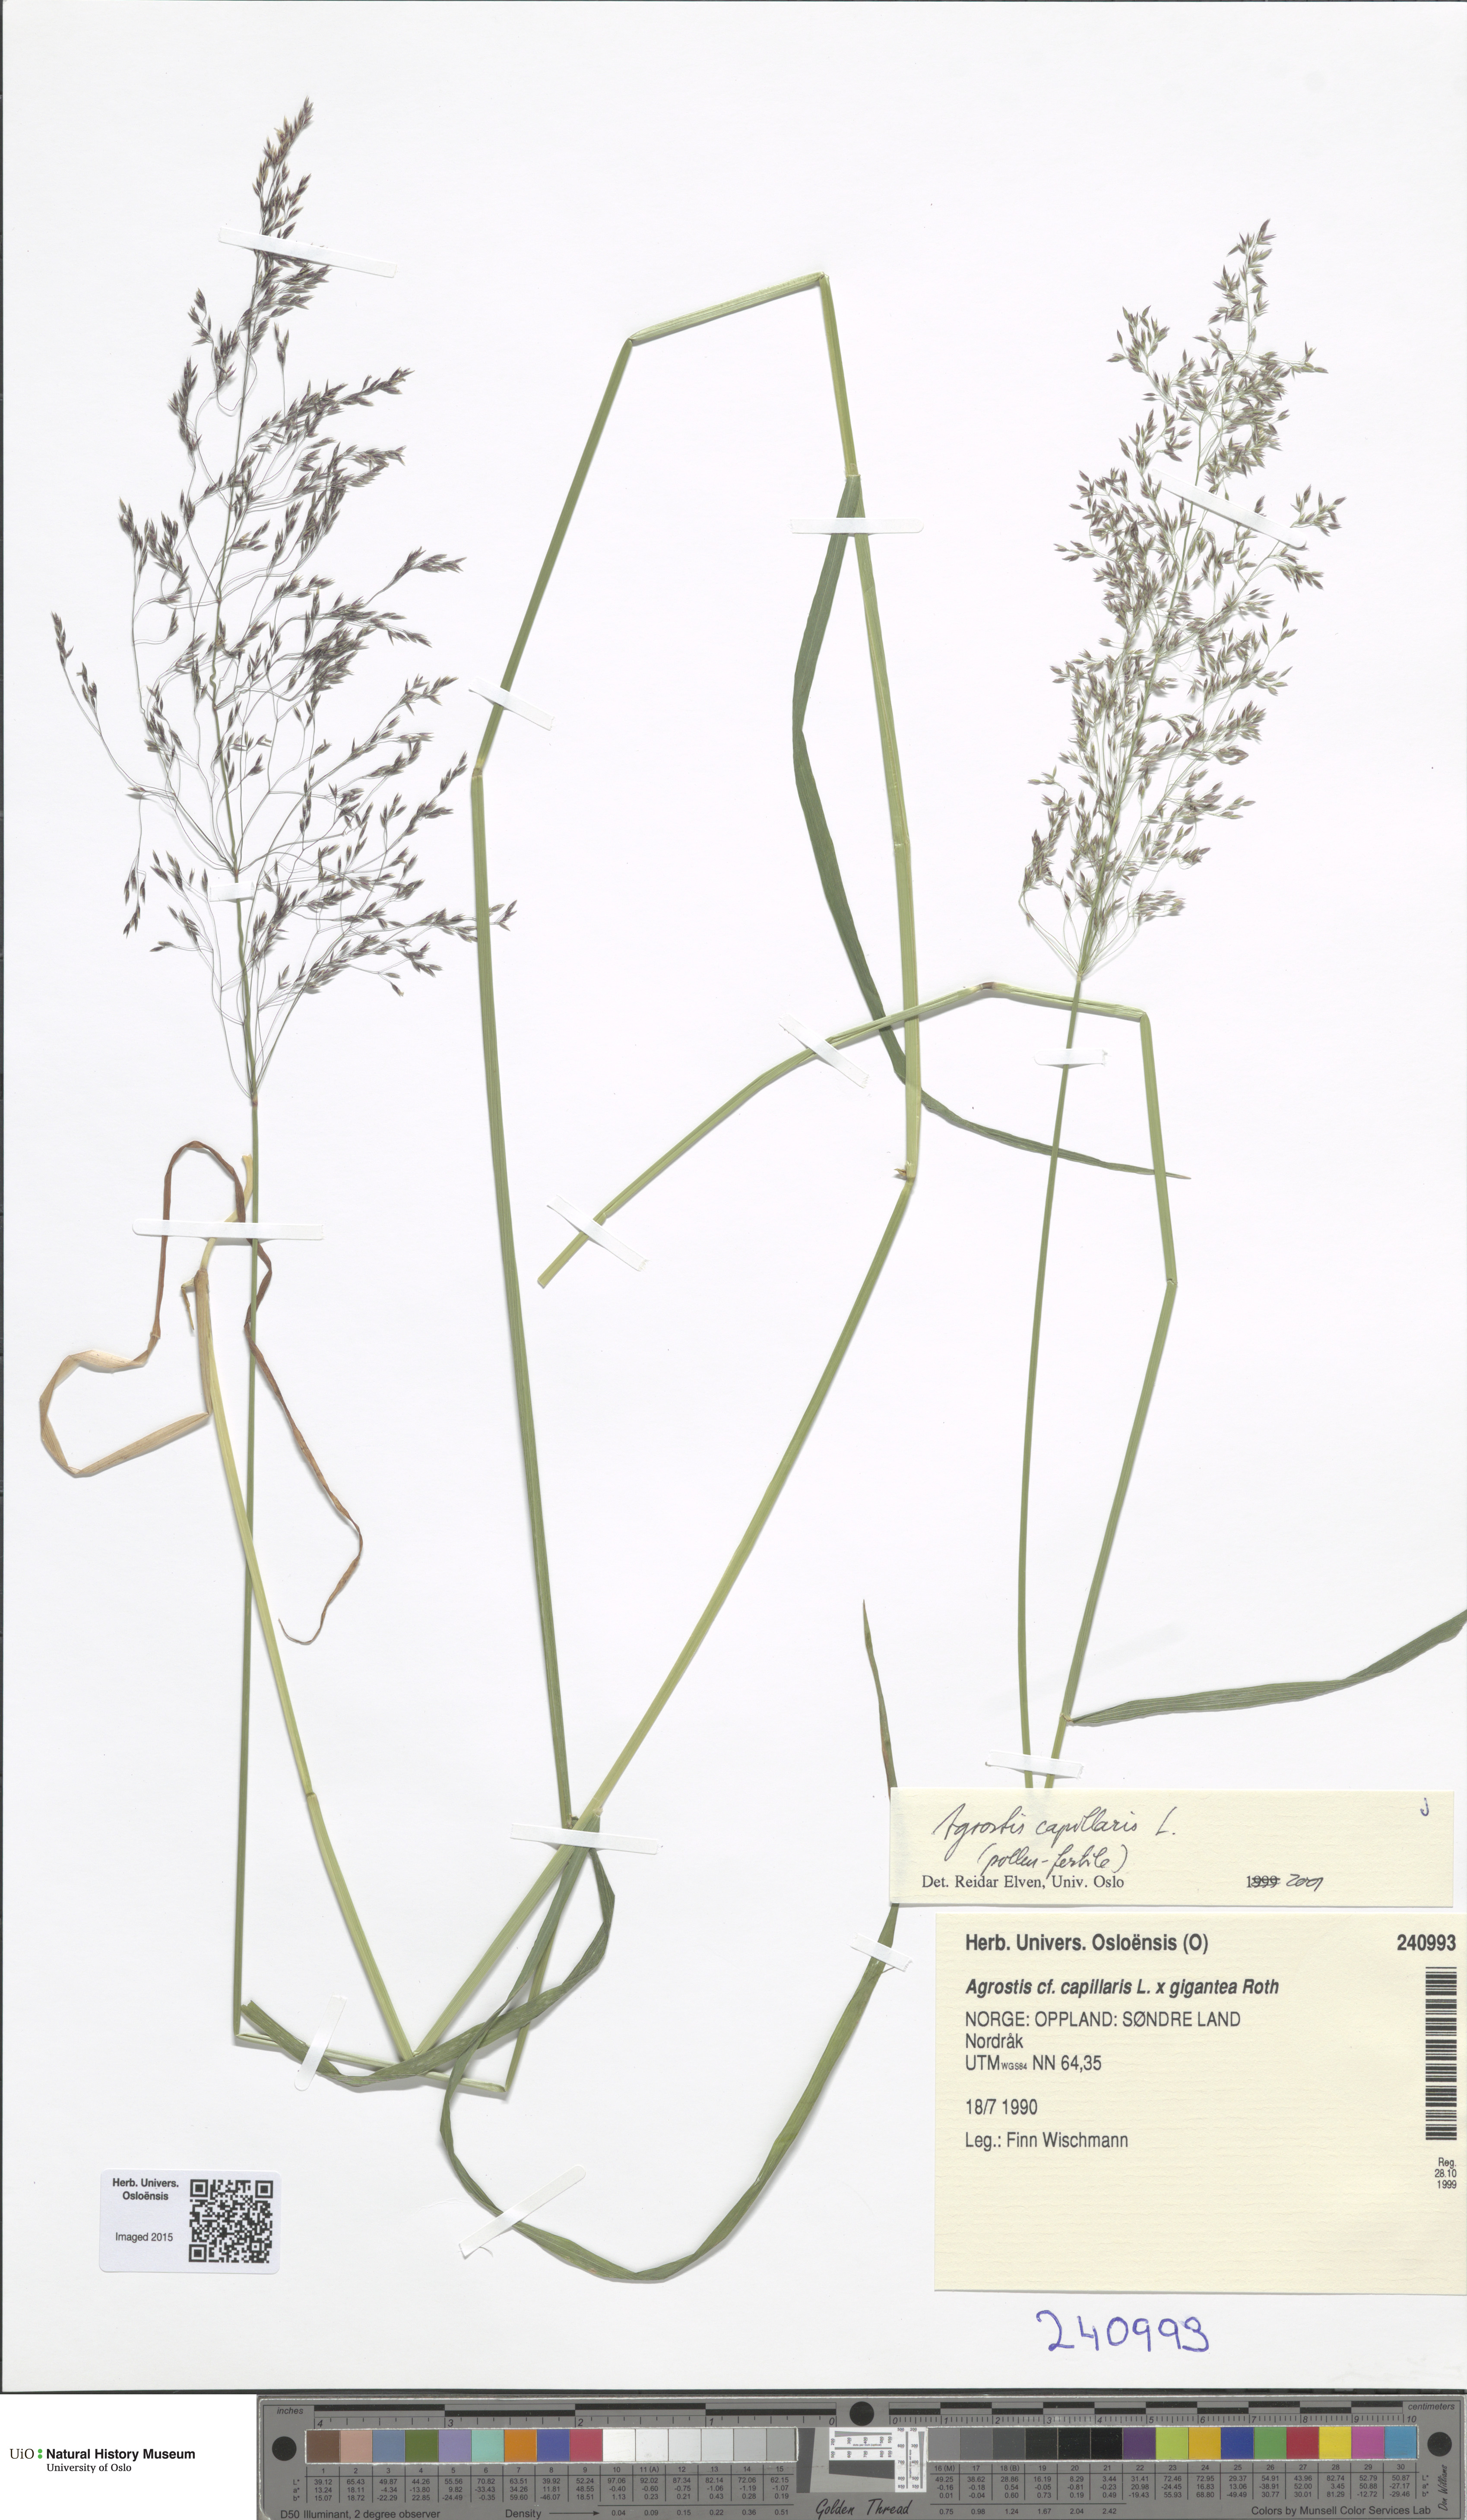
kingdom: Plantae
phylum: Tracheophyta
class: Liliopsida
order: Poales
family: Poaceae
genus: Agrostis
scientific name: Agrostis capillaris
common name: Colonial bentgrass
